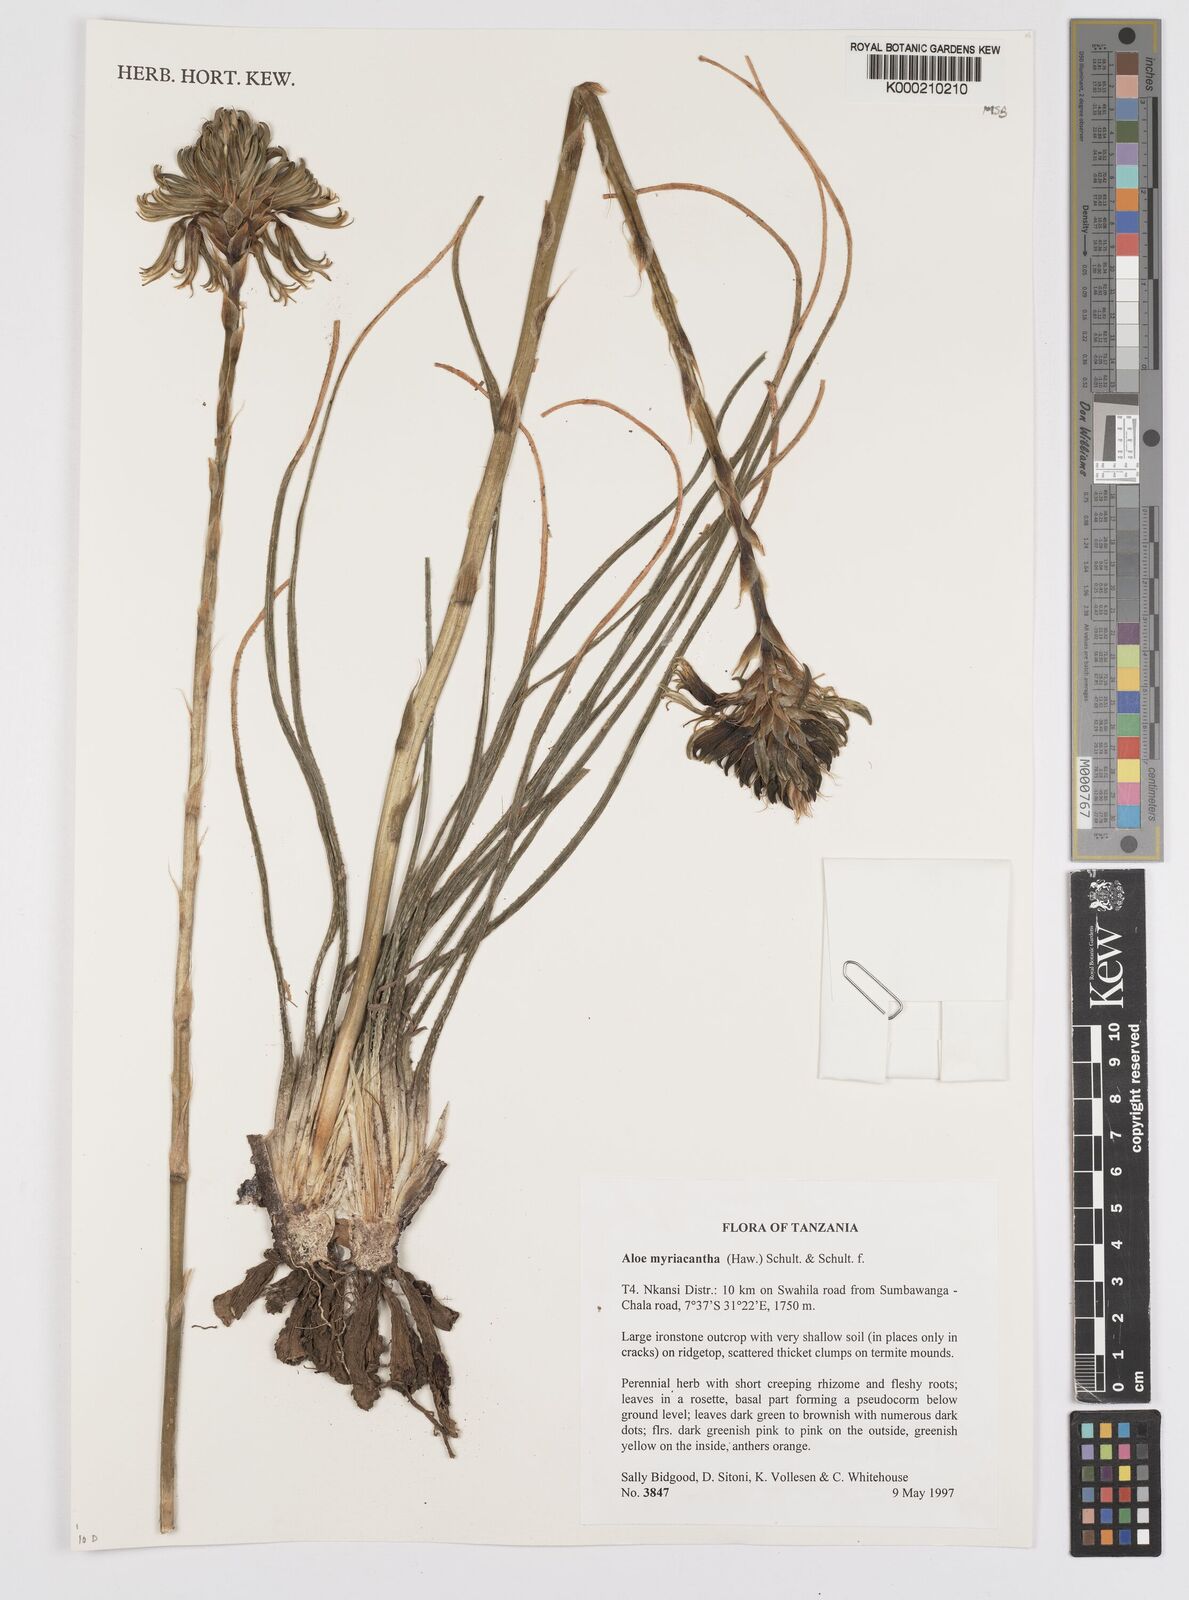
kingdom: Plantae
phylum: Tracheophyta
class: Liliopsida
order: Asparagales
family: Asphodelaceae
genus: Aloe
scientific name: Aloe
